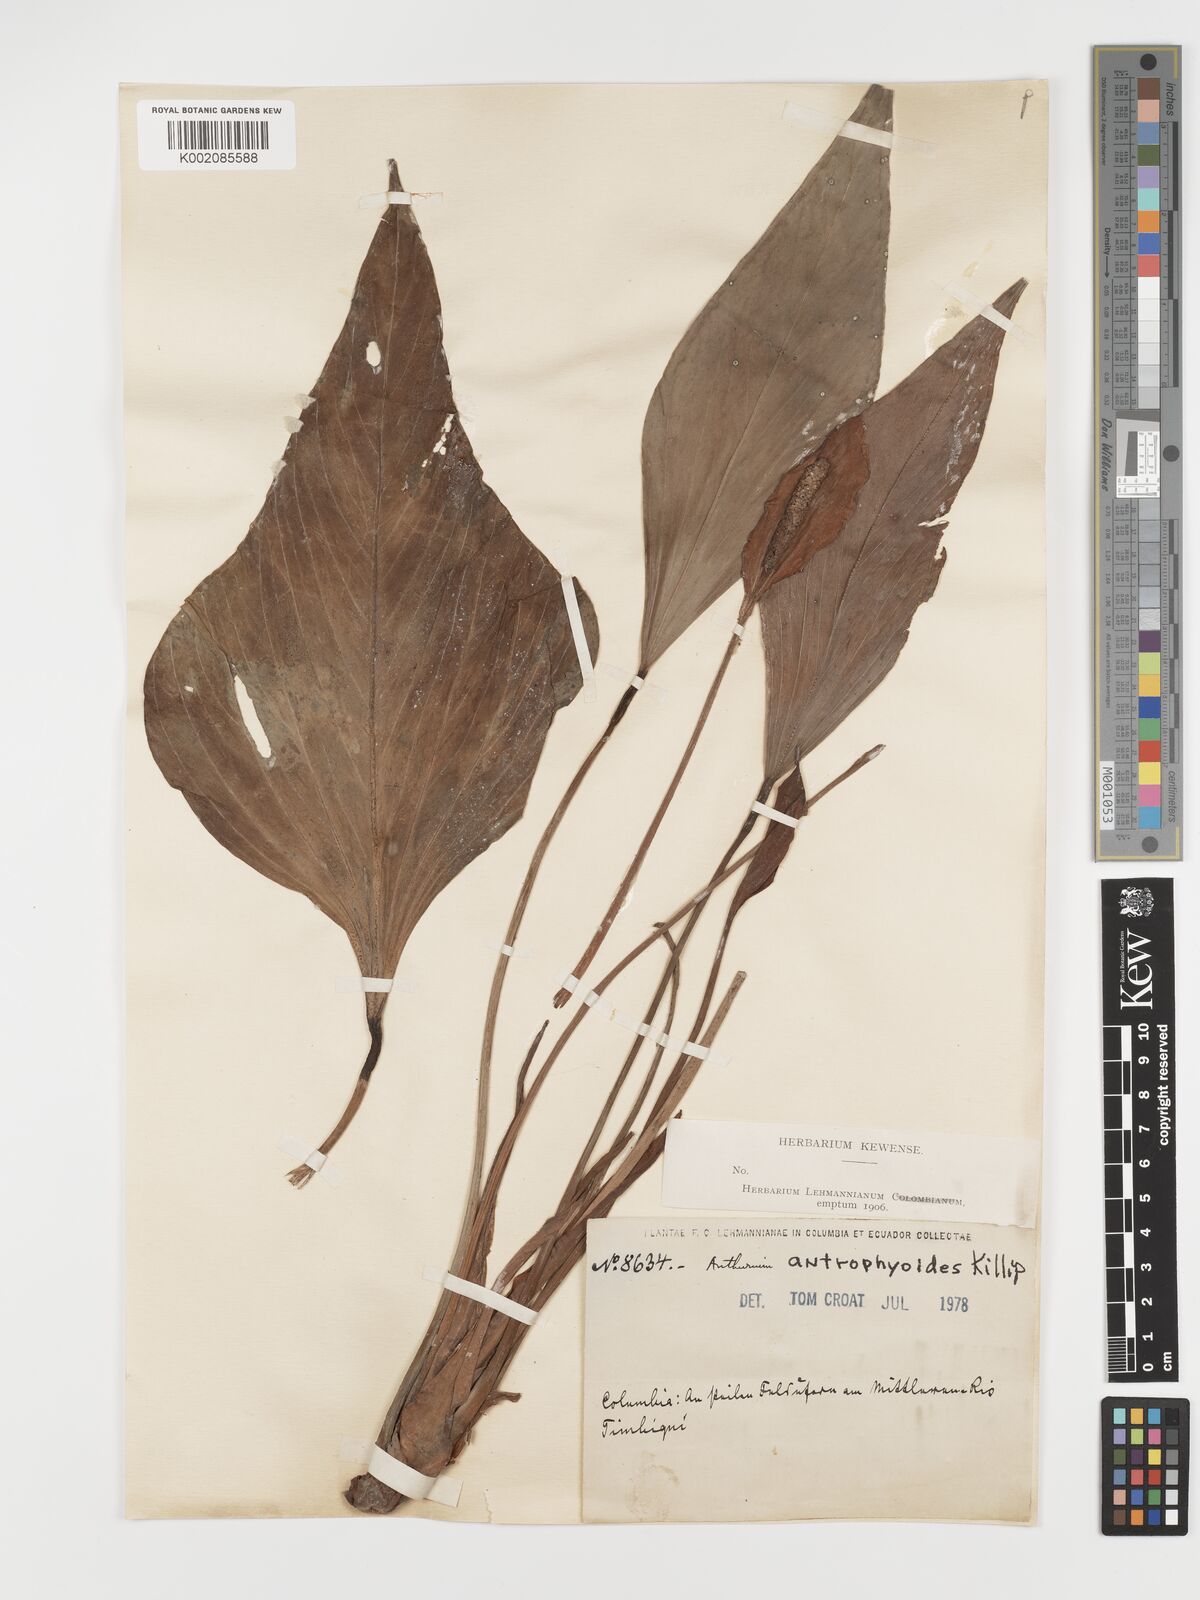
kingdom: Plantae
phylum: Tracheophyta
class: Liliopsida
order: Alismatales
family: Araceae
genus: Anthurium
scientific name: Anthurium antrophyoides
